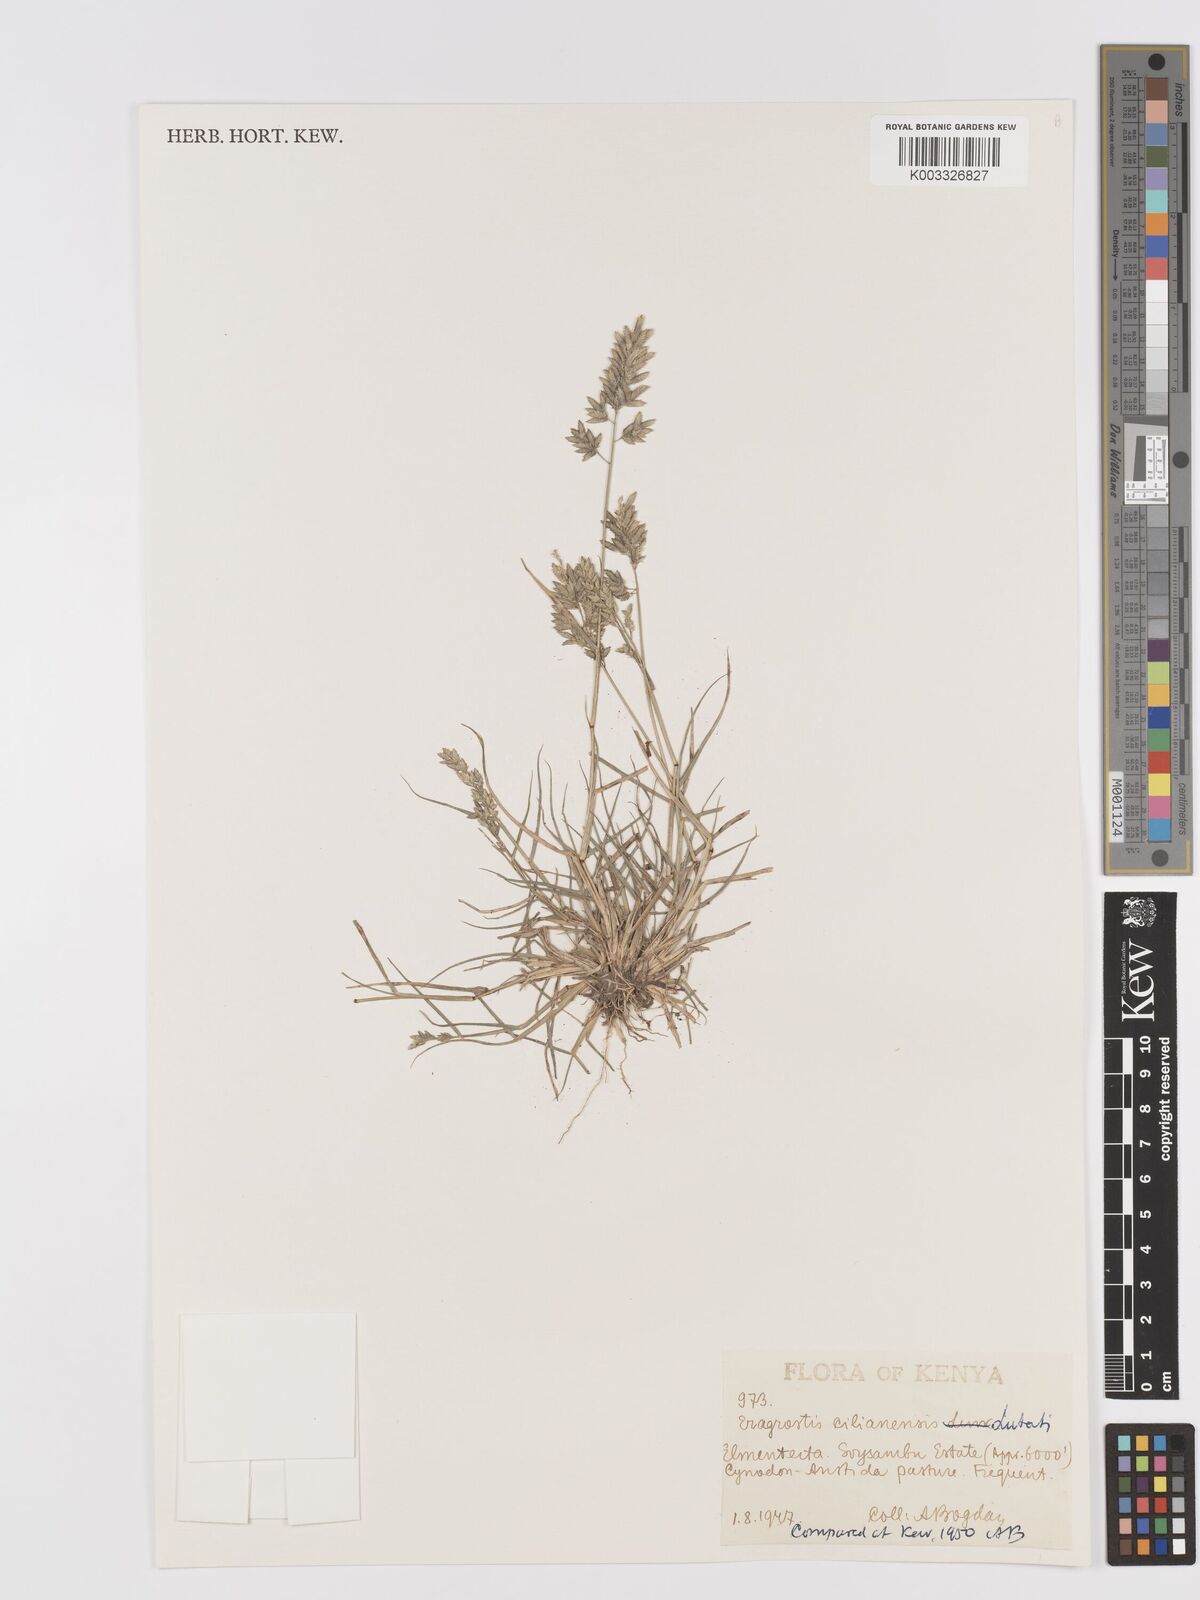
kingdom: Plantae
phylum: Tracheophyta
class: Liliopsida
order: Poales
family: Poaceae
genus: Eragrostis
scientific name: Eragrostis cilianensis
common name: Stinkgrass
